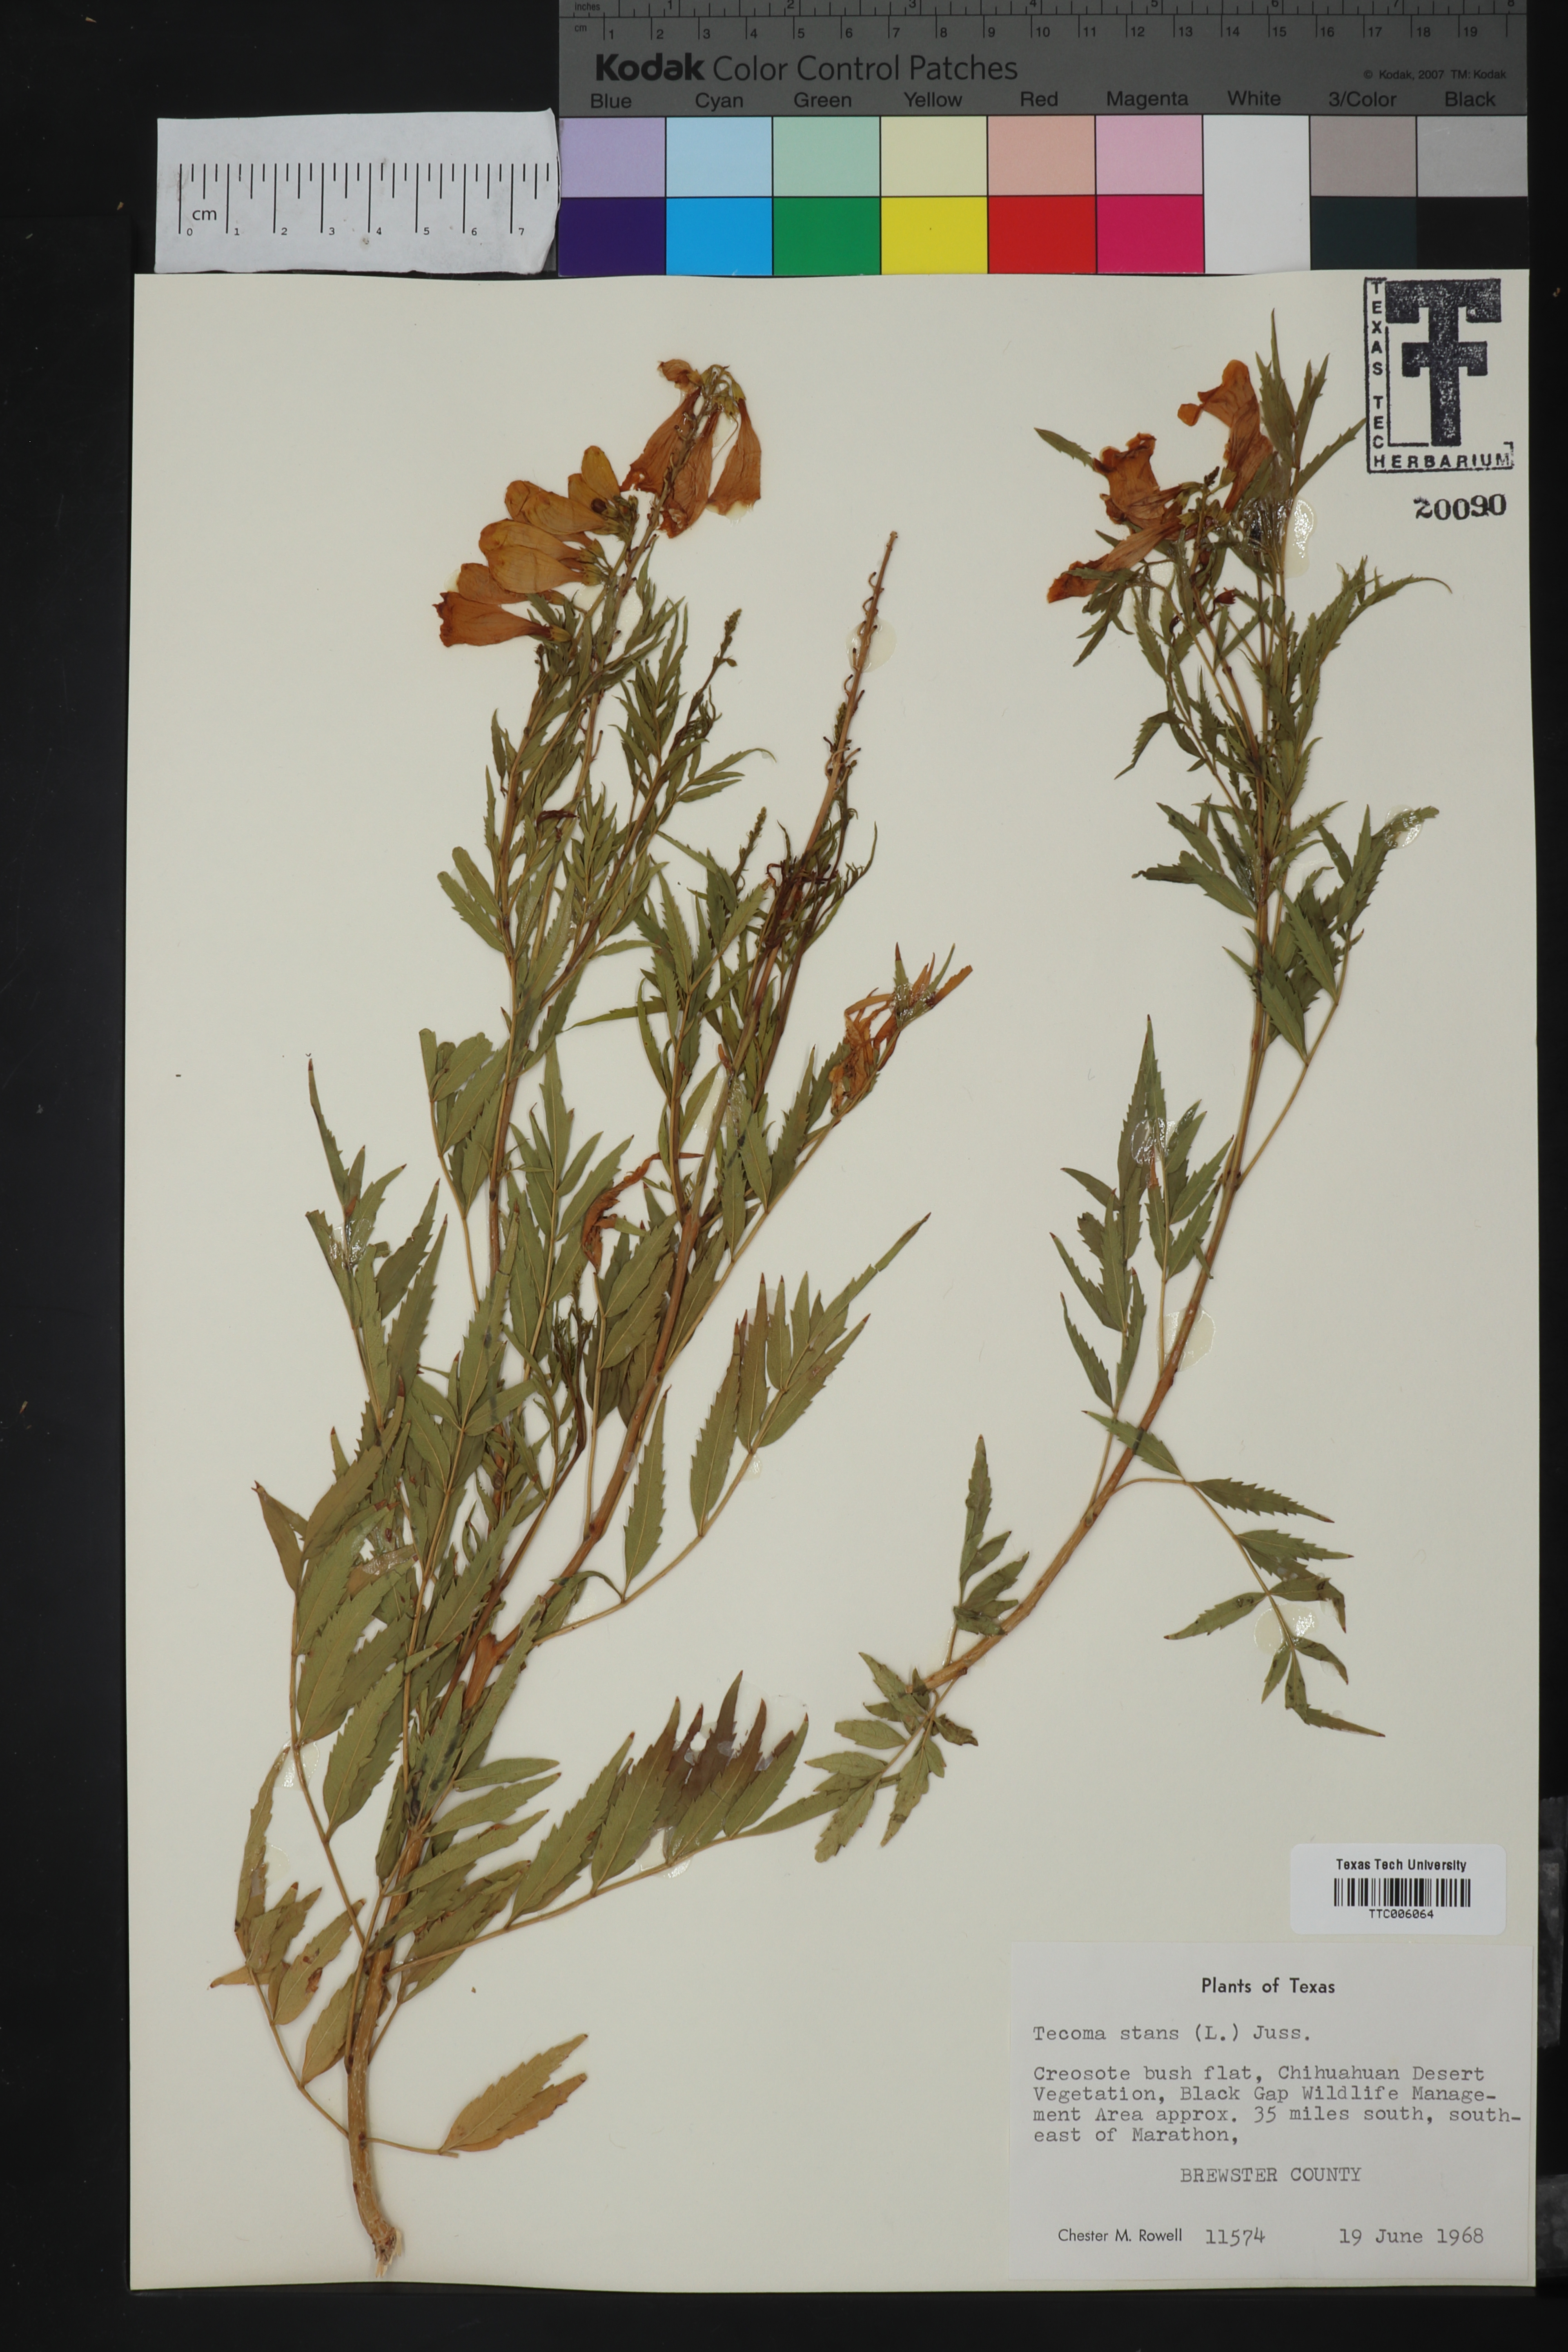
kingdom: Plantae
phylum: Tracheophyta
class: Magnoliopsida
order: Lamiales
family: Bignoniaceae
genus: Tecoma
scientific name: Tecoma stans
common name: Yellow trumpetbush
